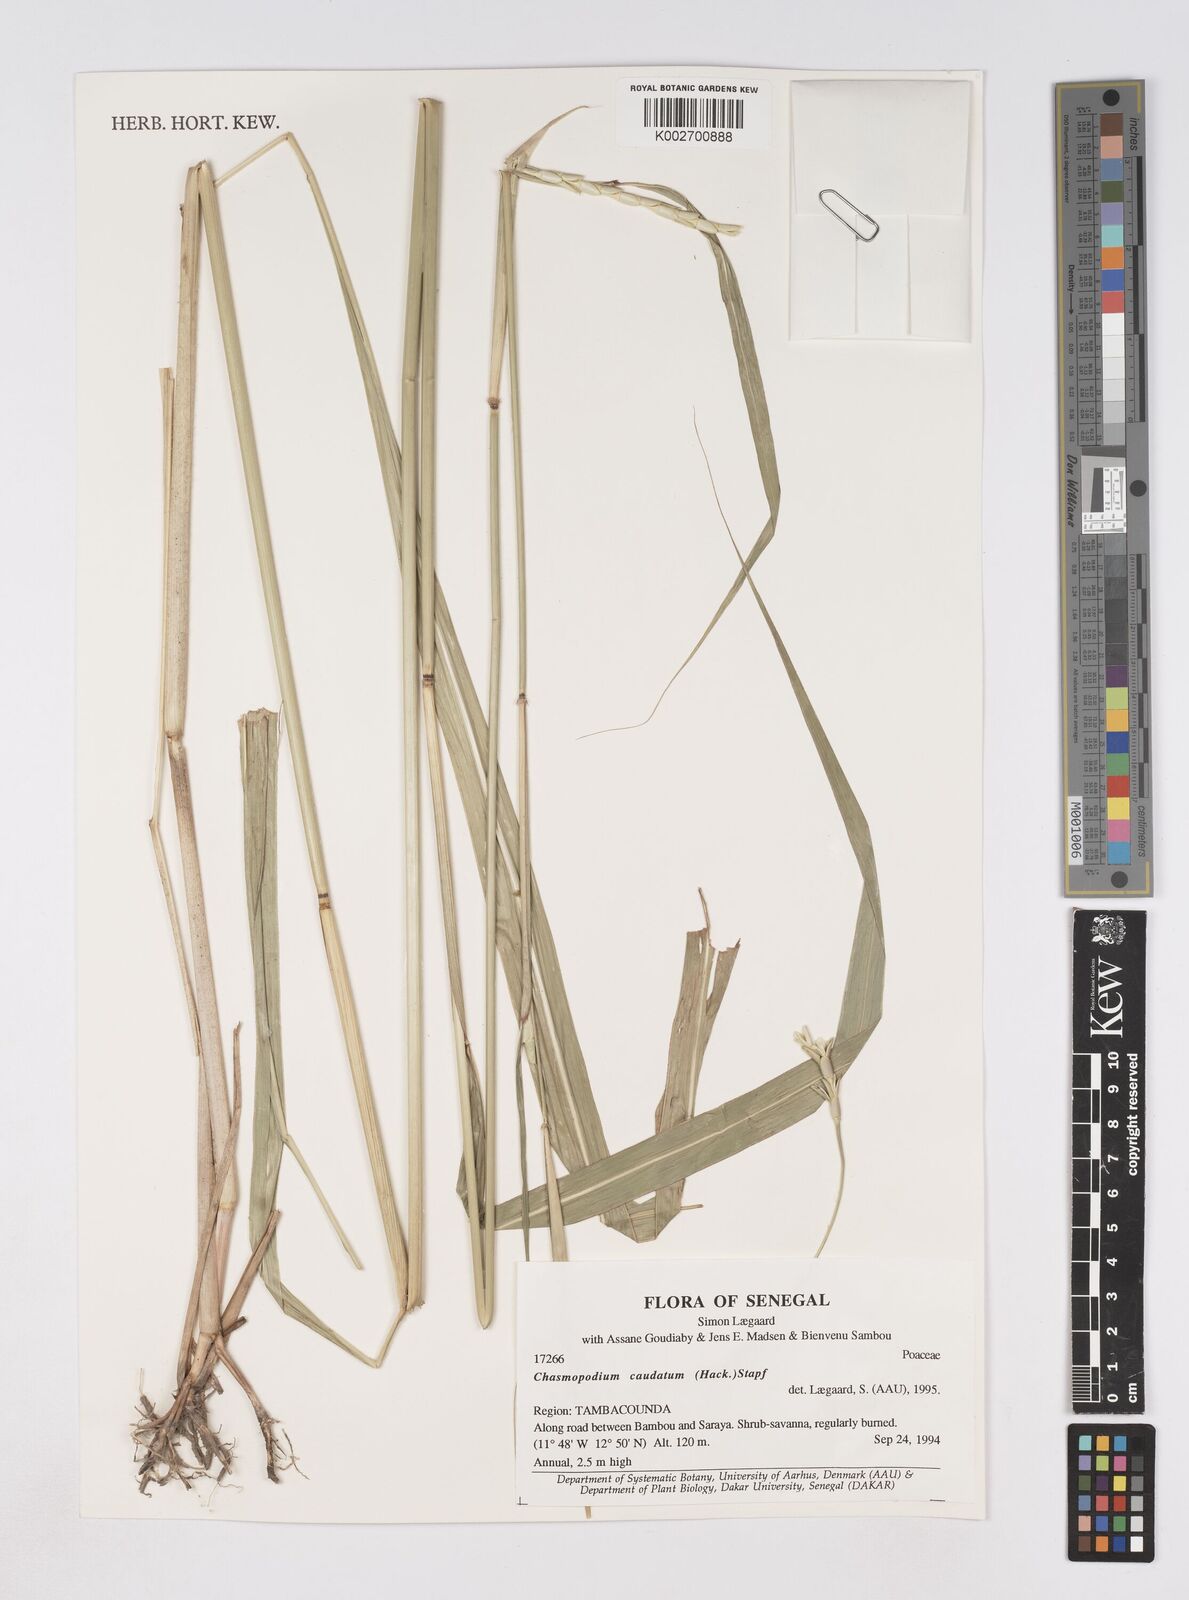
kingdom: Plantae
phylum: Tracheophyta
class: Liliopsida
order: Poales
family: Poaceae
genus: Chasmopodium
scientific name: Chasmopodium caudatum
